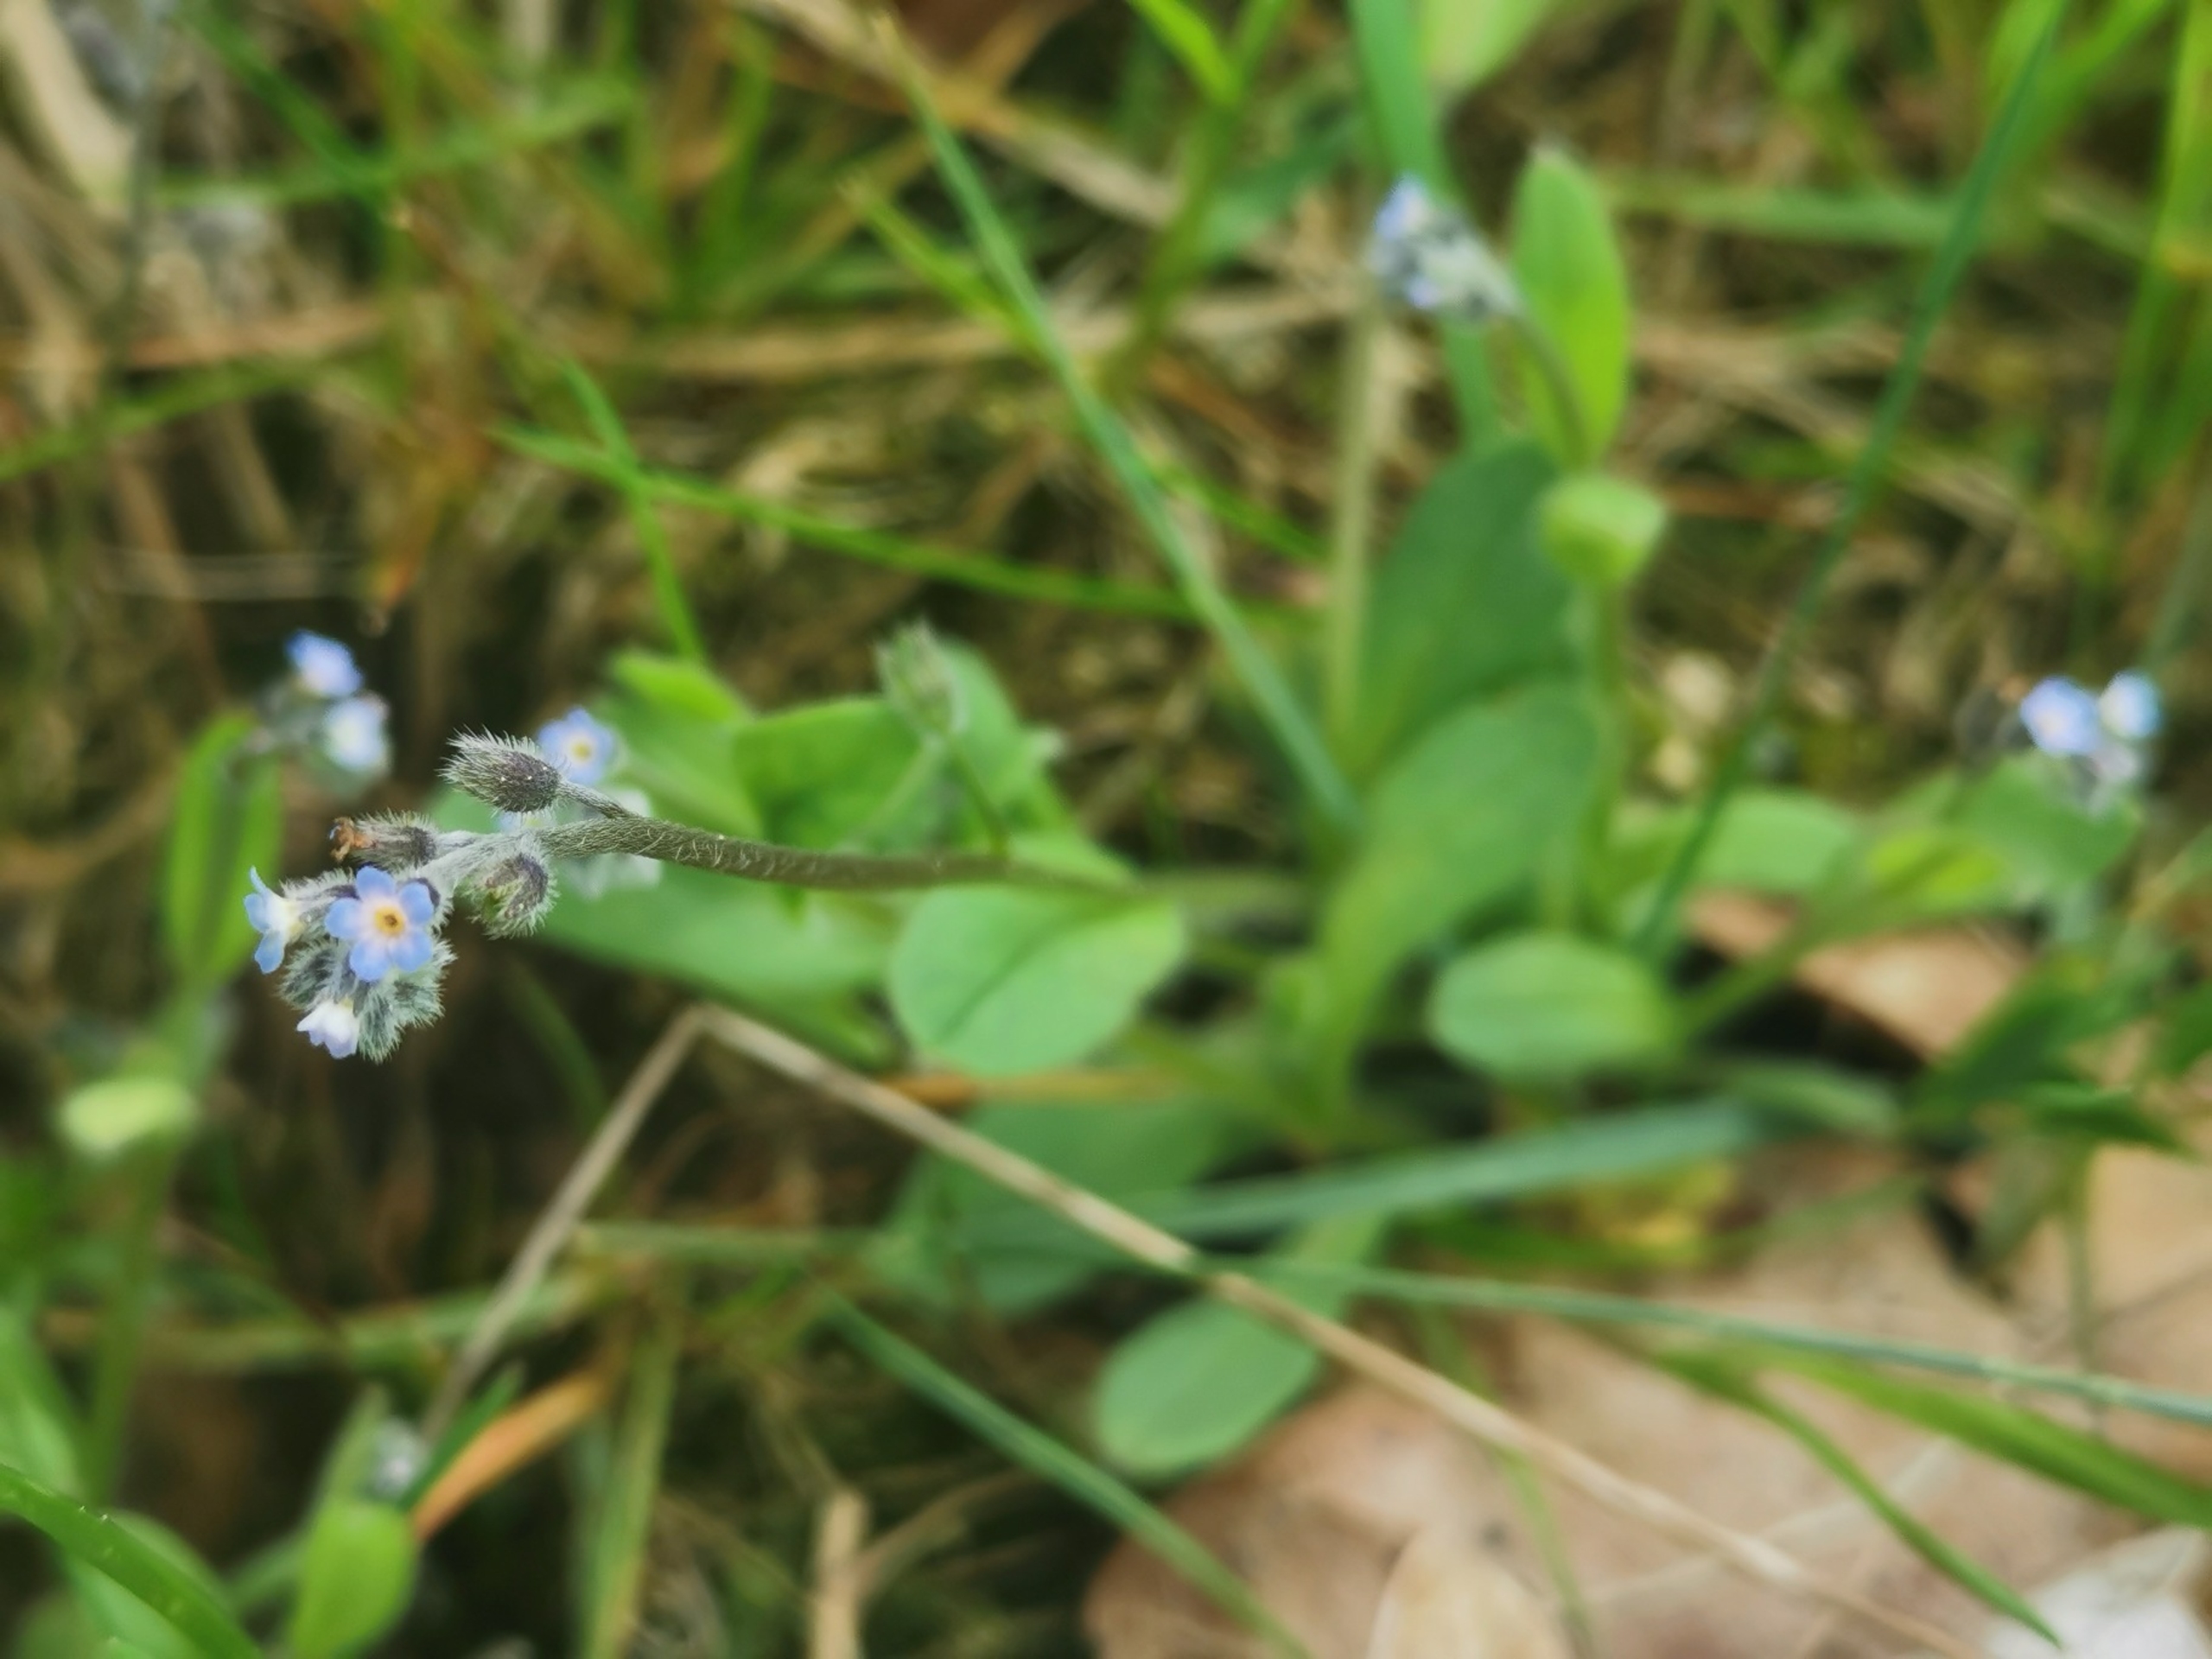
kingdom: Plantae
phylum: Tracheophyta
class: Magnoliopsida
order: Boraginales
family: Boraginaceae
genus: Myosotis
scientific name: Myosotis ramosissima
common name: Bakke-forglemmigej
